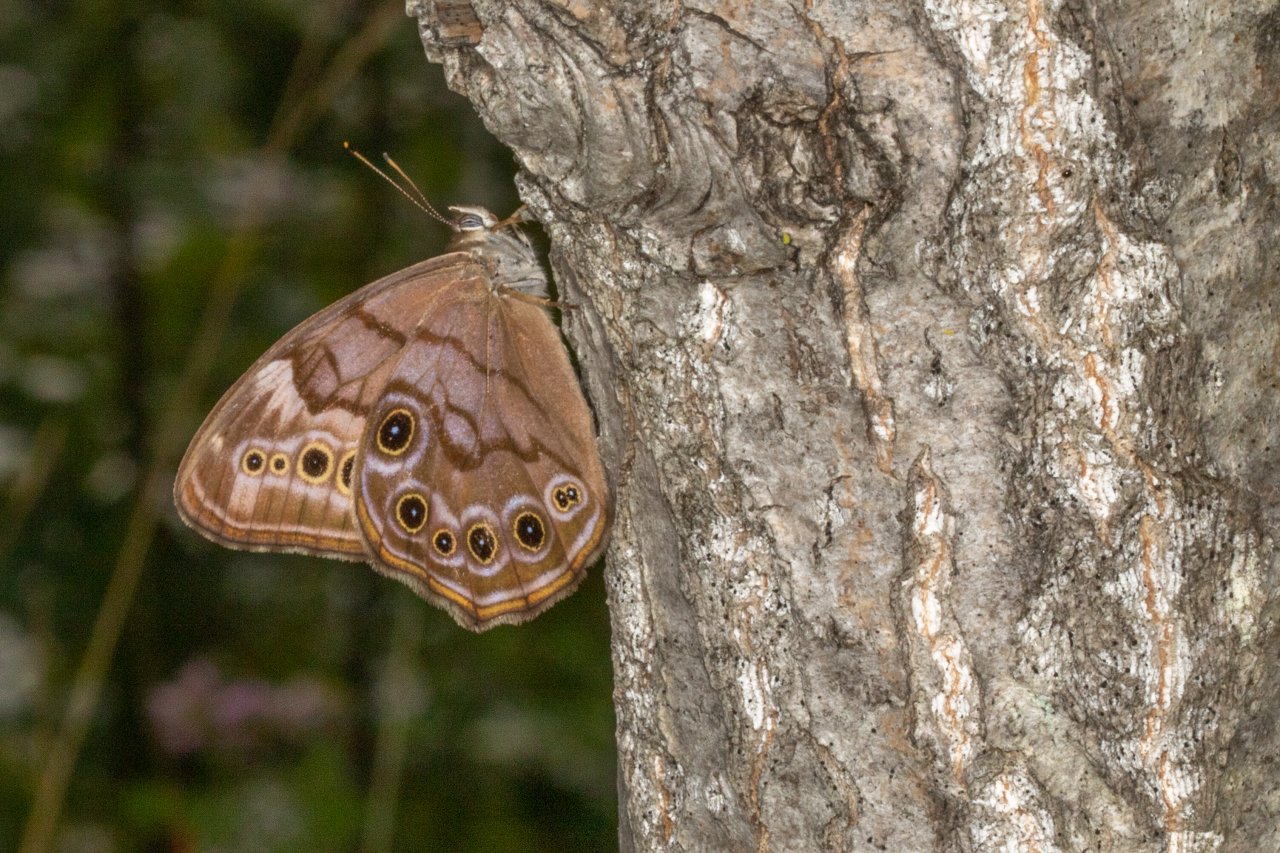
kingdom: Animalia
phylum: Arthropoda
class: Insecta
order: Lepidoptera
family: Nymphalidae
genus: Lethe
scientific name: Lethe anthedon
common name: Northern Pearly-Eye
